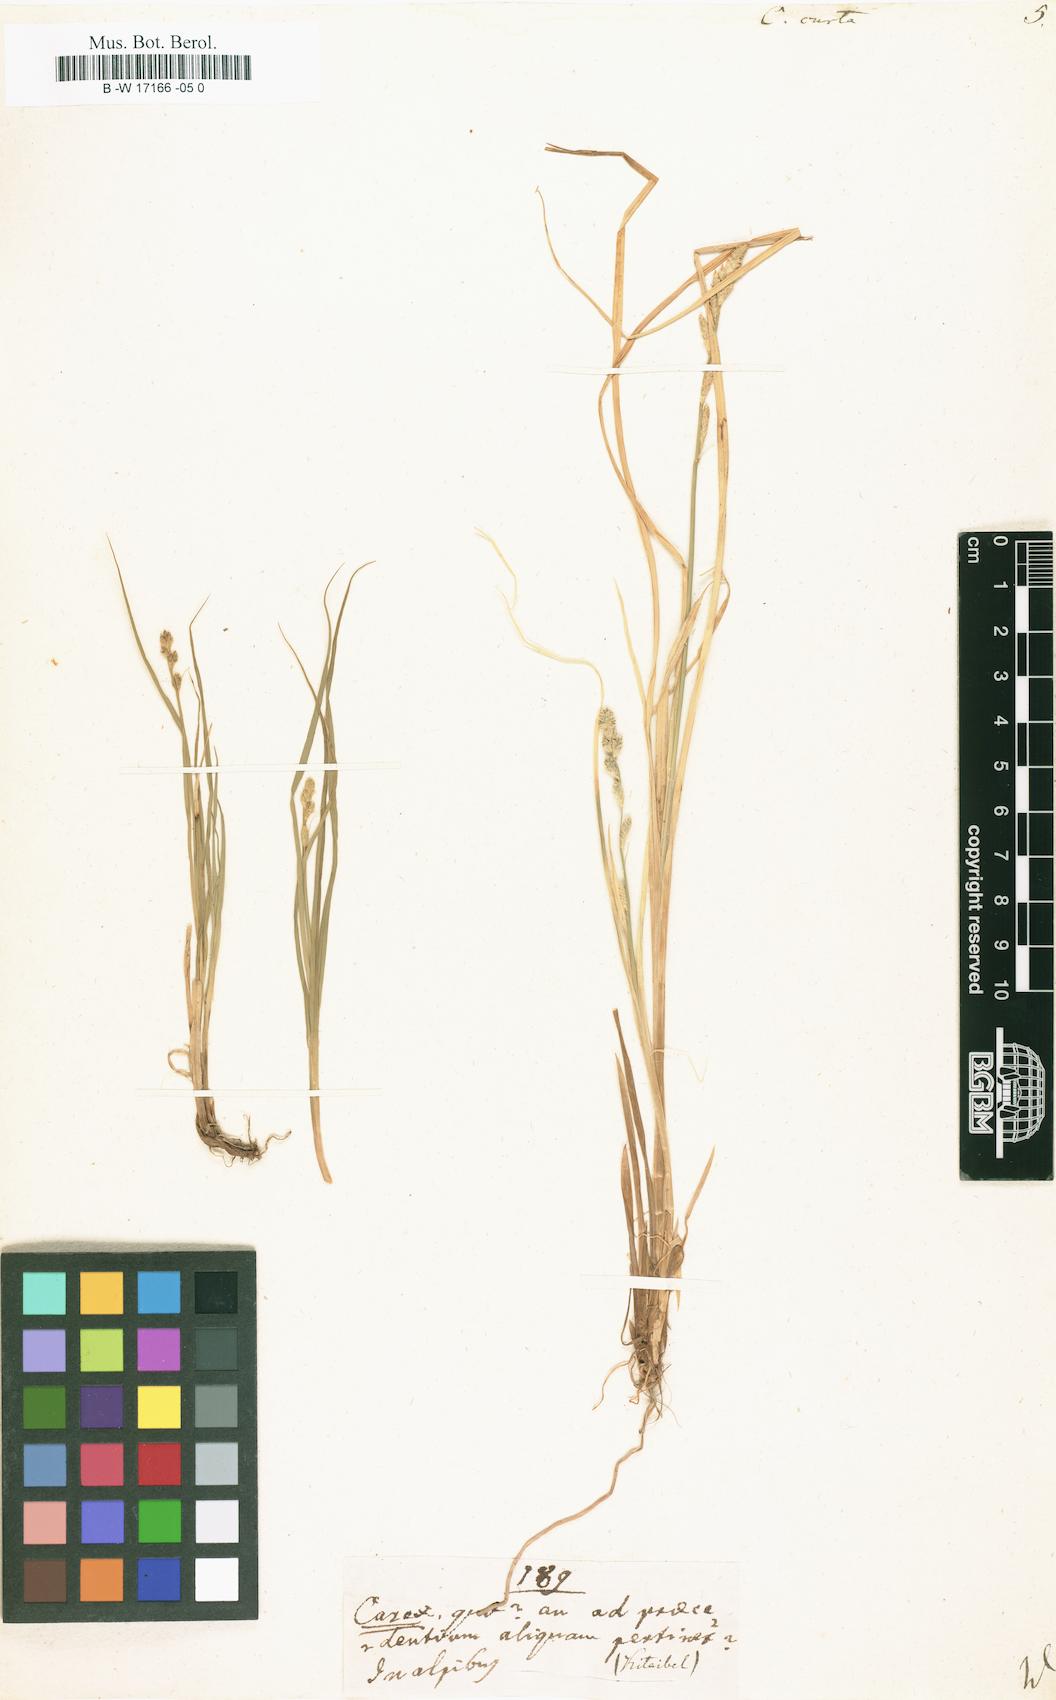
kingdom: Plantae
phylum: Tracheophyta
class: Liliopsida
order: Poales
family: Cyperaceae
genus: Carex
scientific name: Carex curta
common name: White sedge
